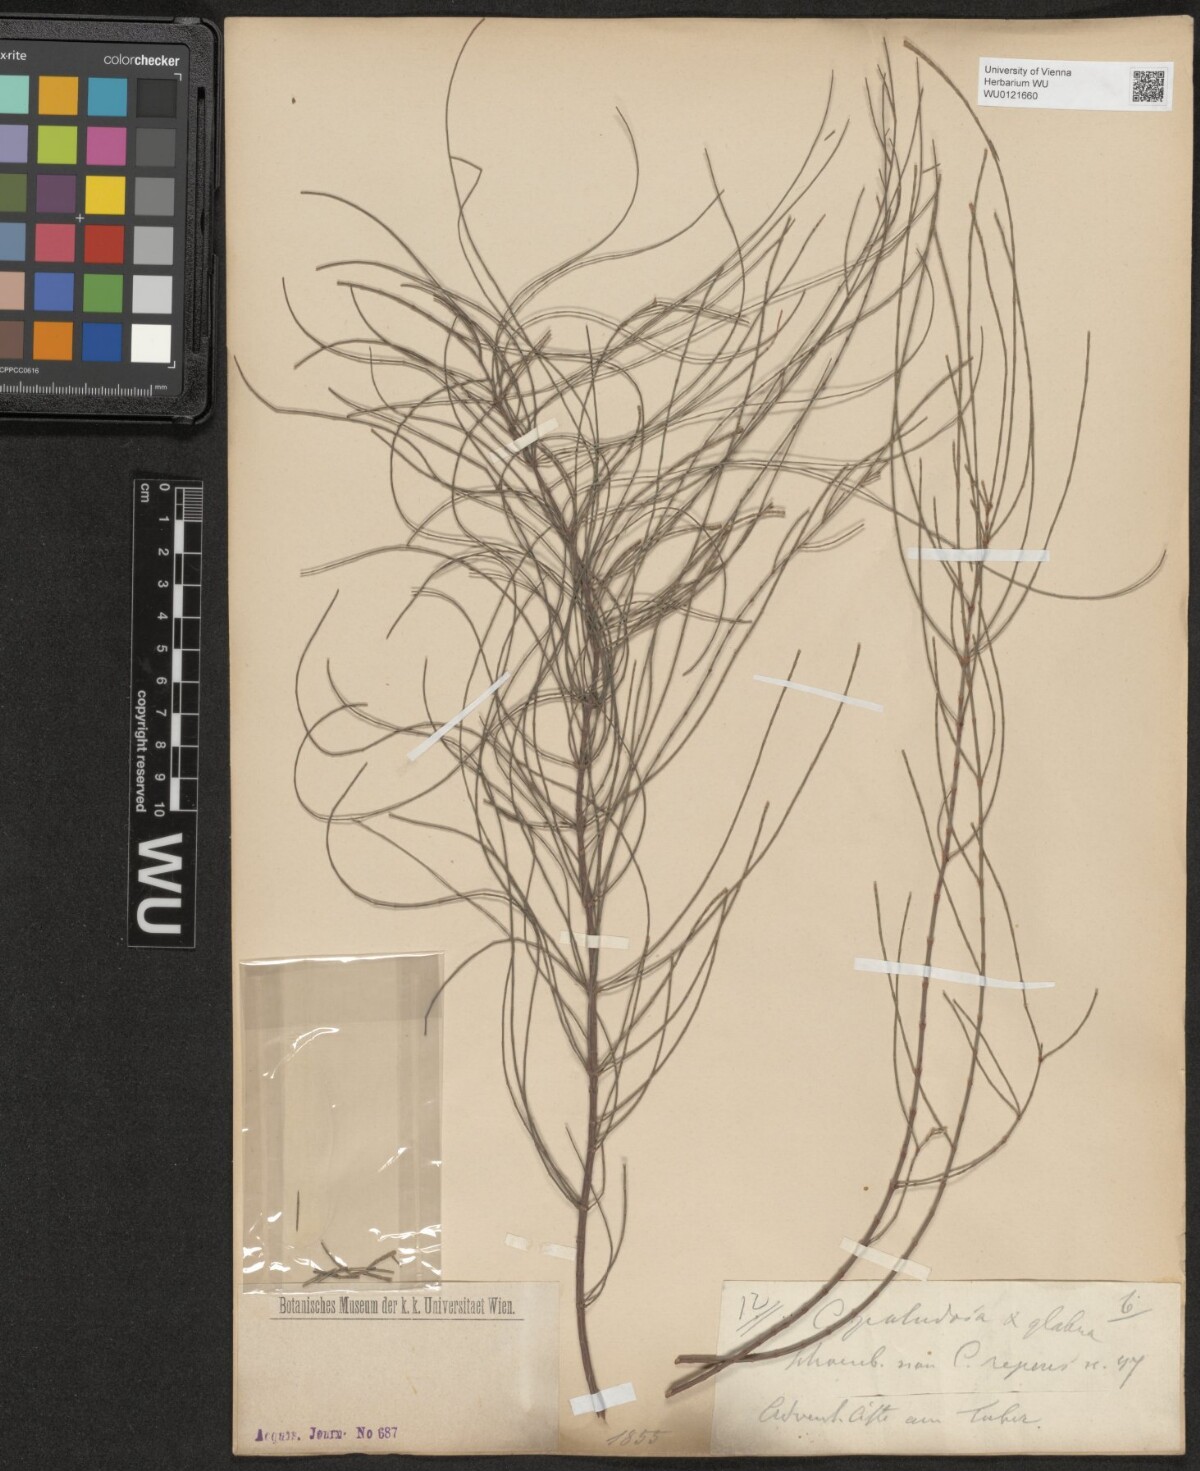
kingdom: Plantae
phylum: Tracheophyta
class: Magnoliopsida
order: Fagales
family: Casuarinaceae
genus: Allocasuarina
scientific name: Allocasuarina paludosa
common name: Scrub she-oak
